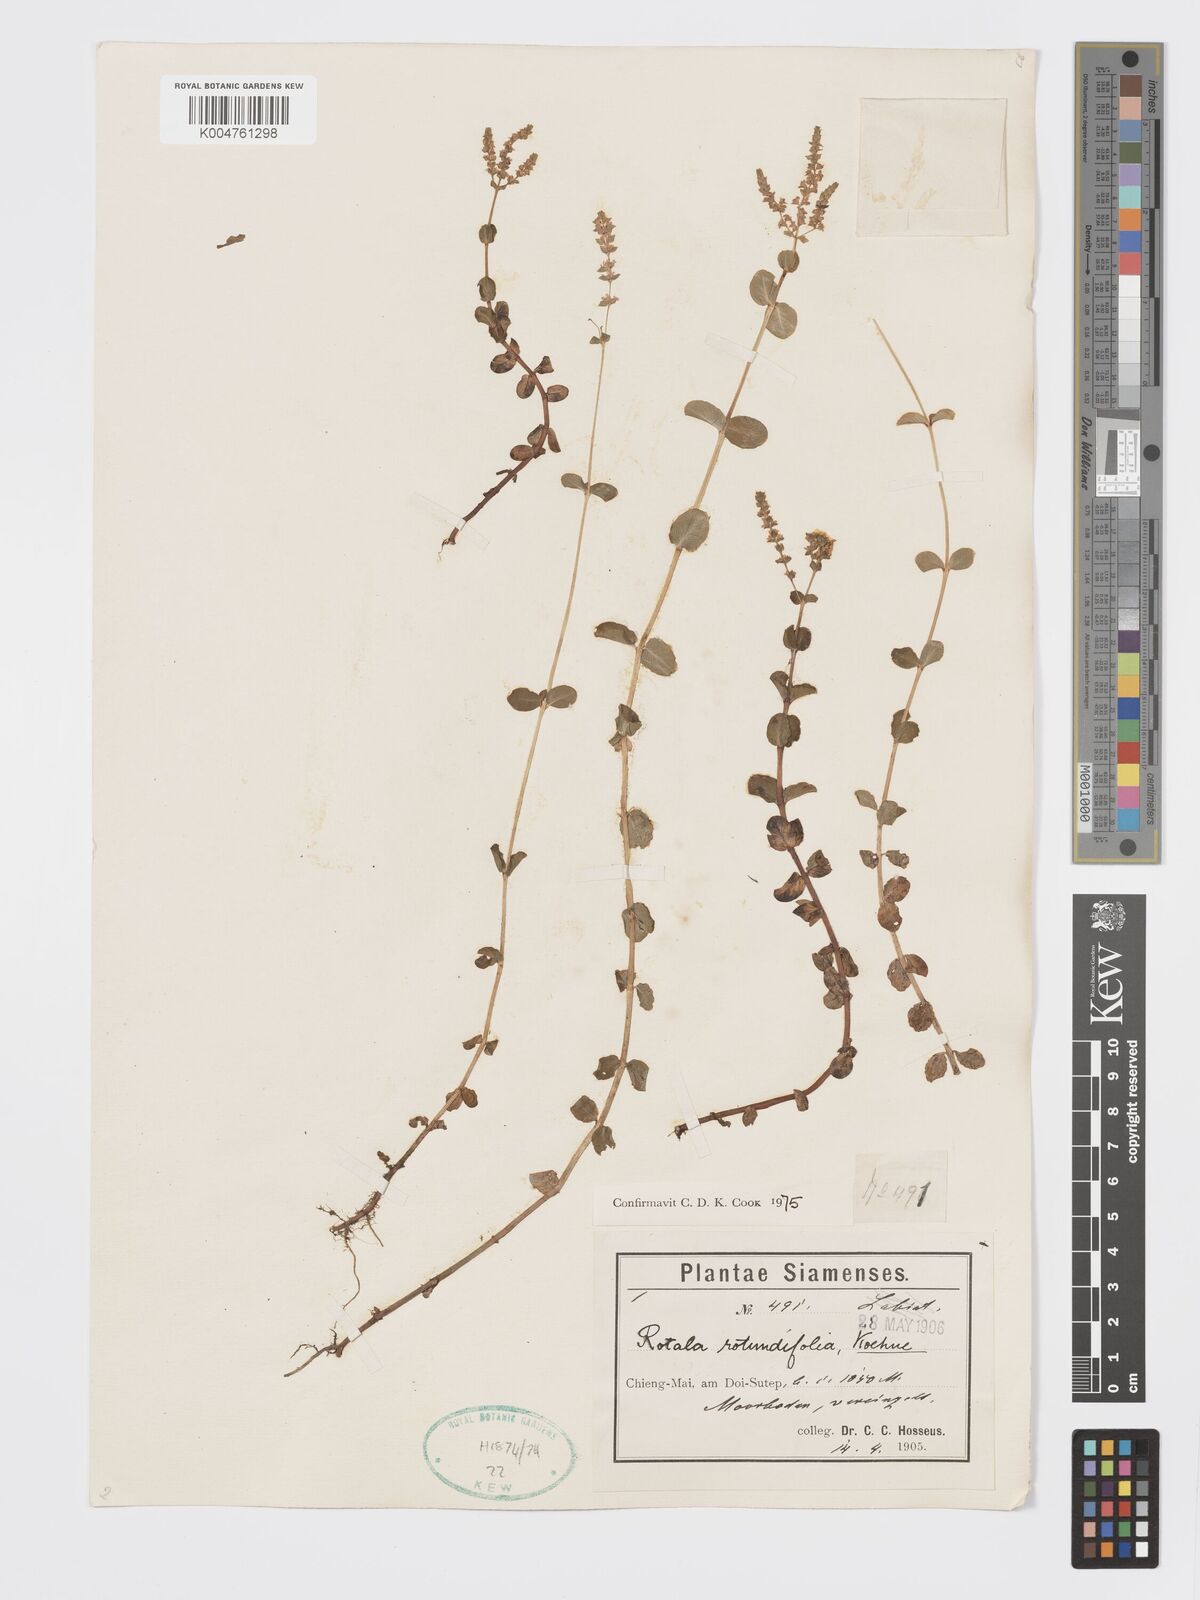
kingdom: Plantae
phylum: Tracheophyta
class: Magnoliopsida
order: Myrtales
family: Lythraceae
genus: Rotala
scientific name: Rotala rotundifolia
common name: Roundleaf toothcup
